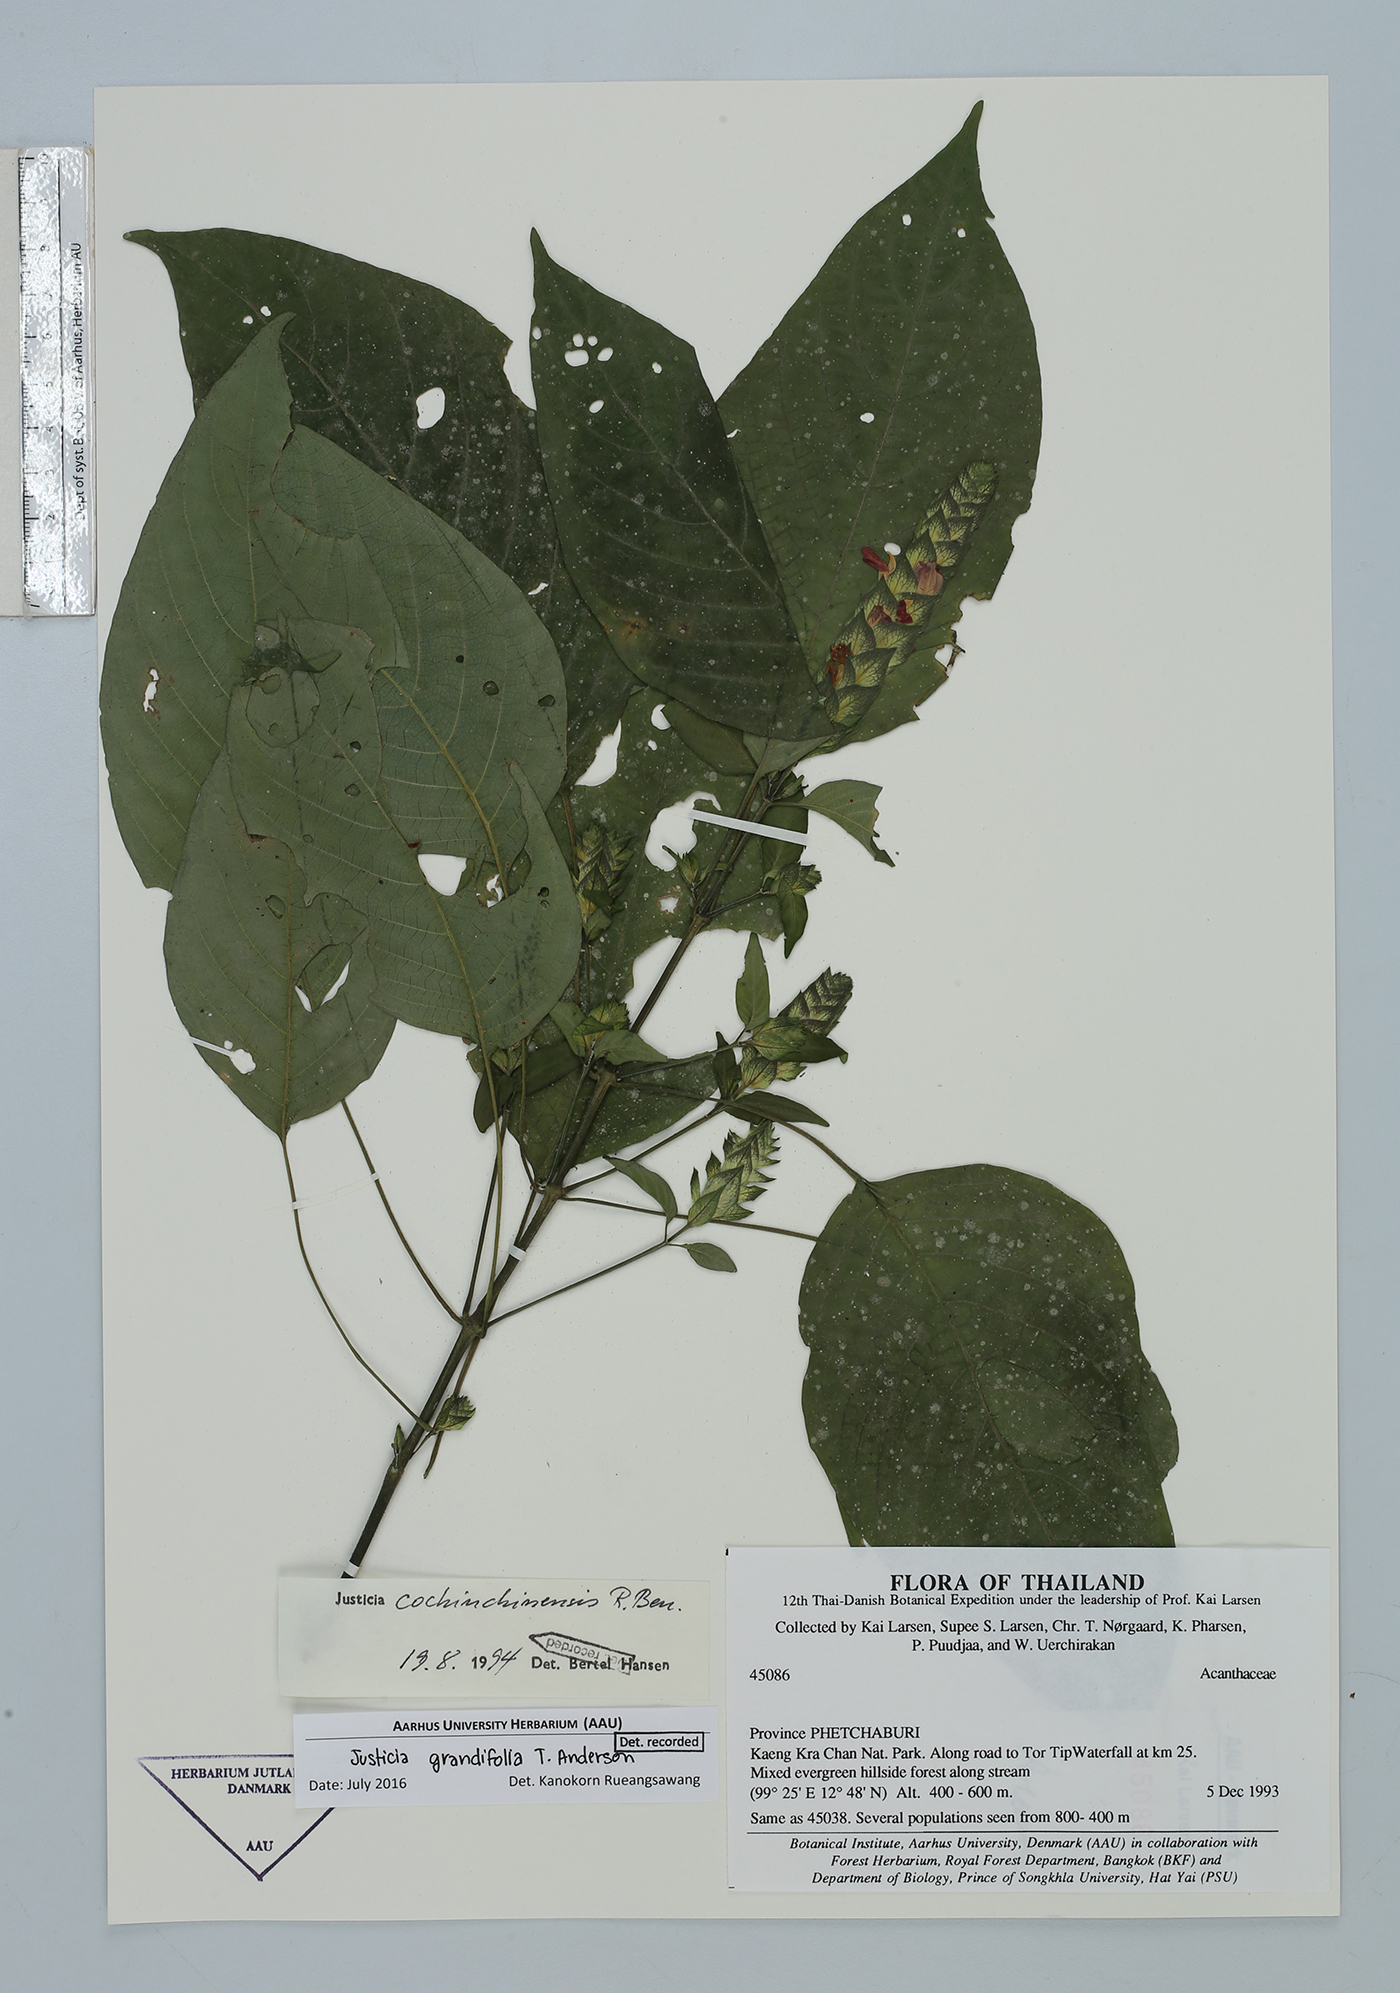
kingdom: Plantae
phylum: Tracheophyta
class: Magnoliopsida
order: Lamiales
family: Acanthaceae
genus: Justicia
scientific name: Justicia grandifolia
